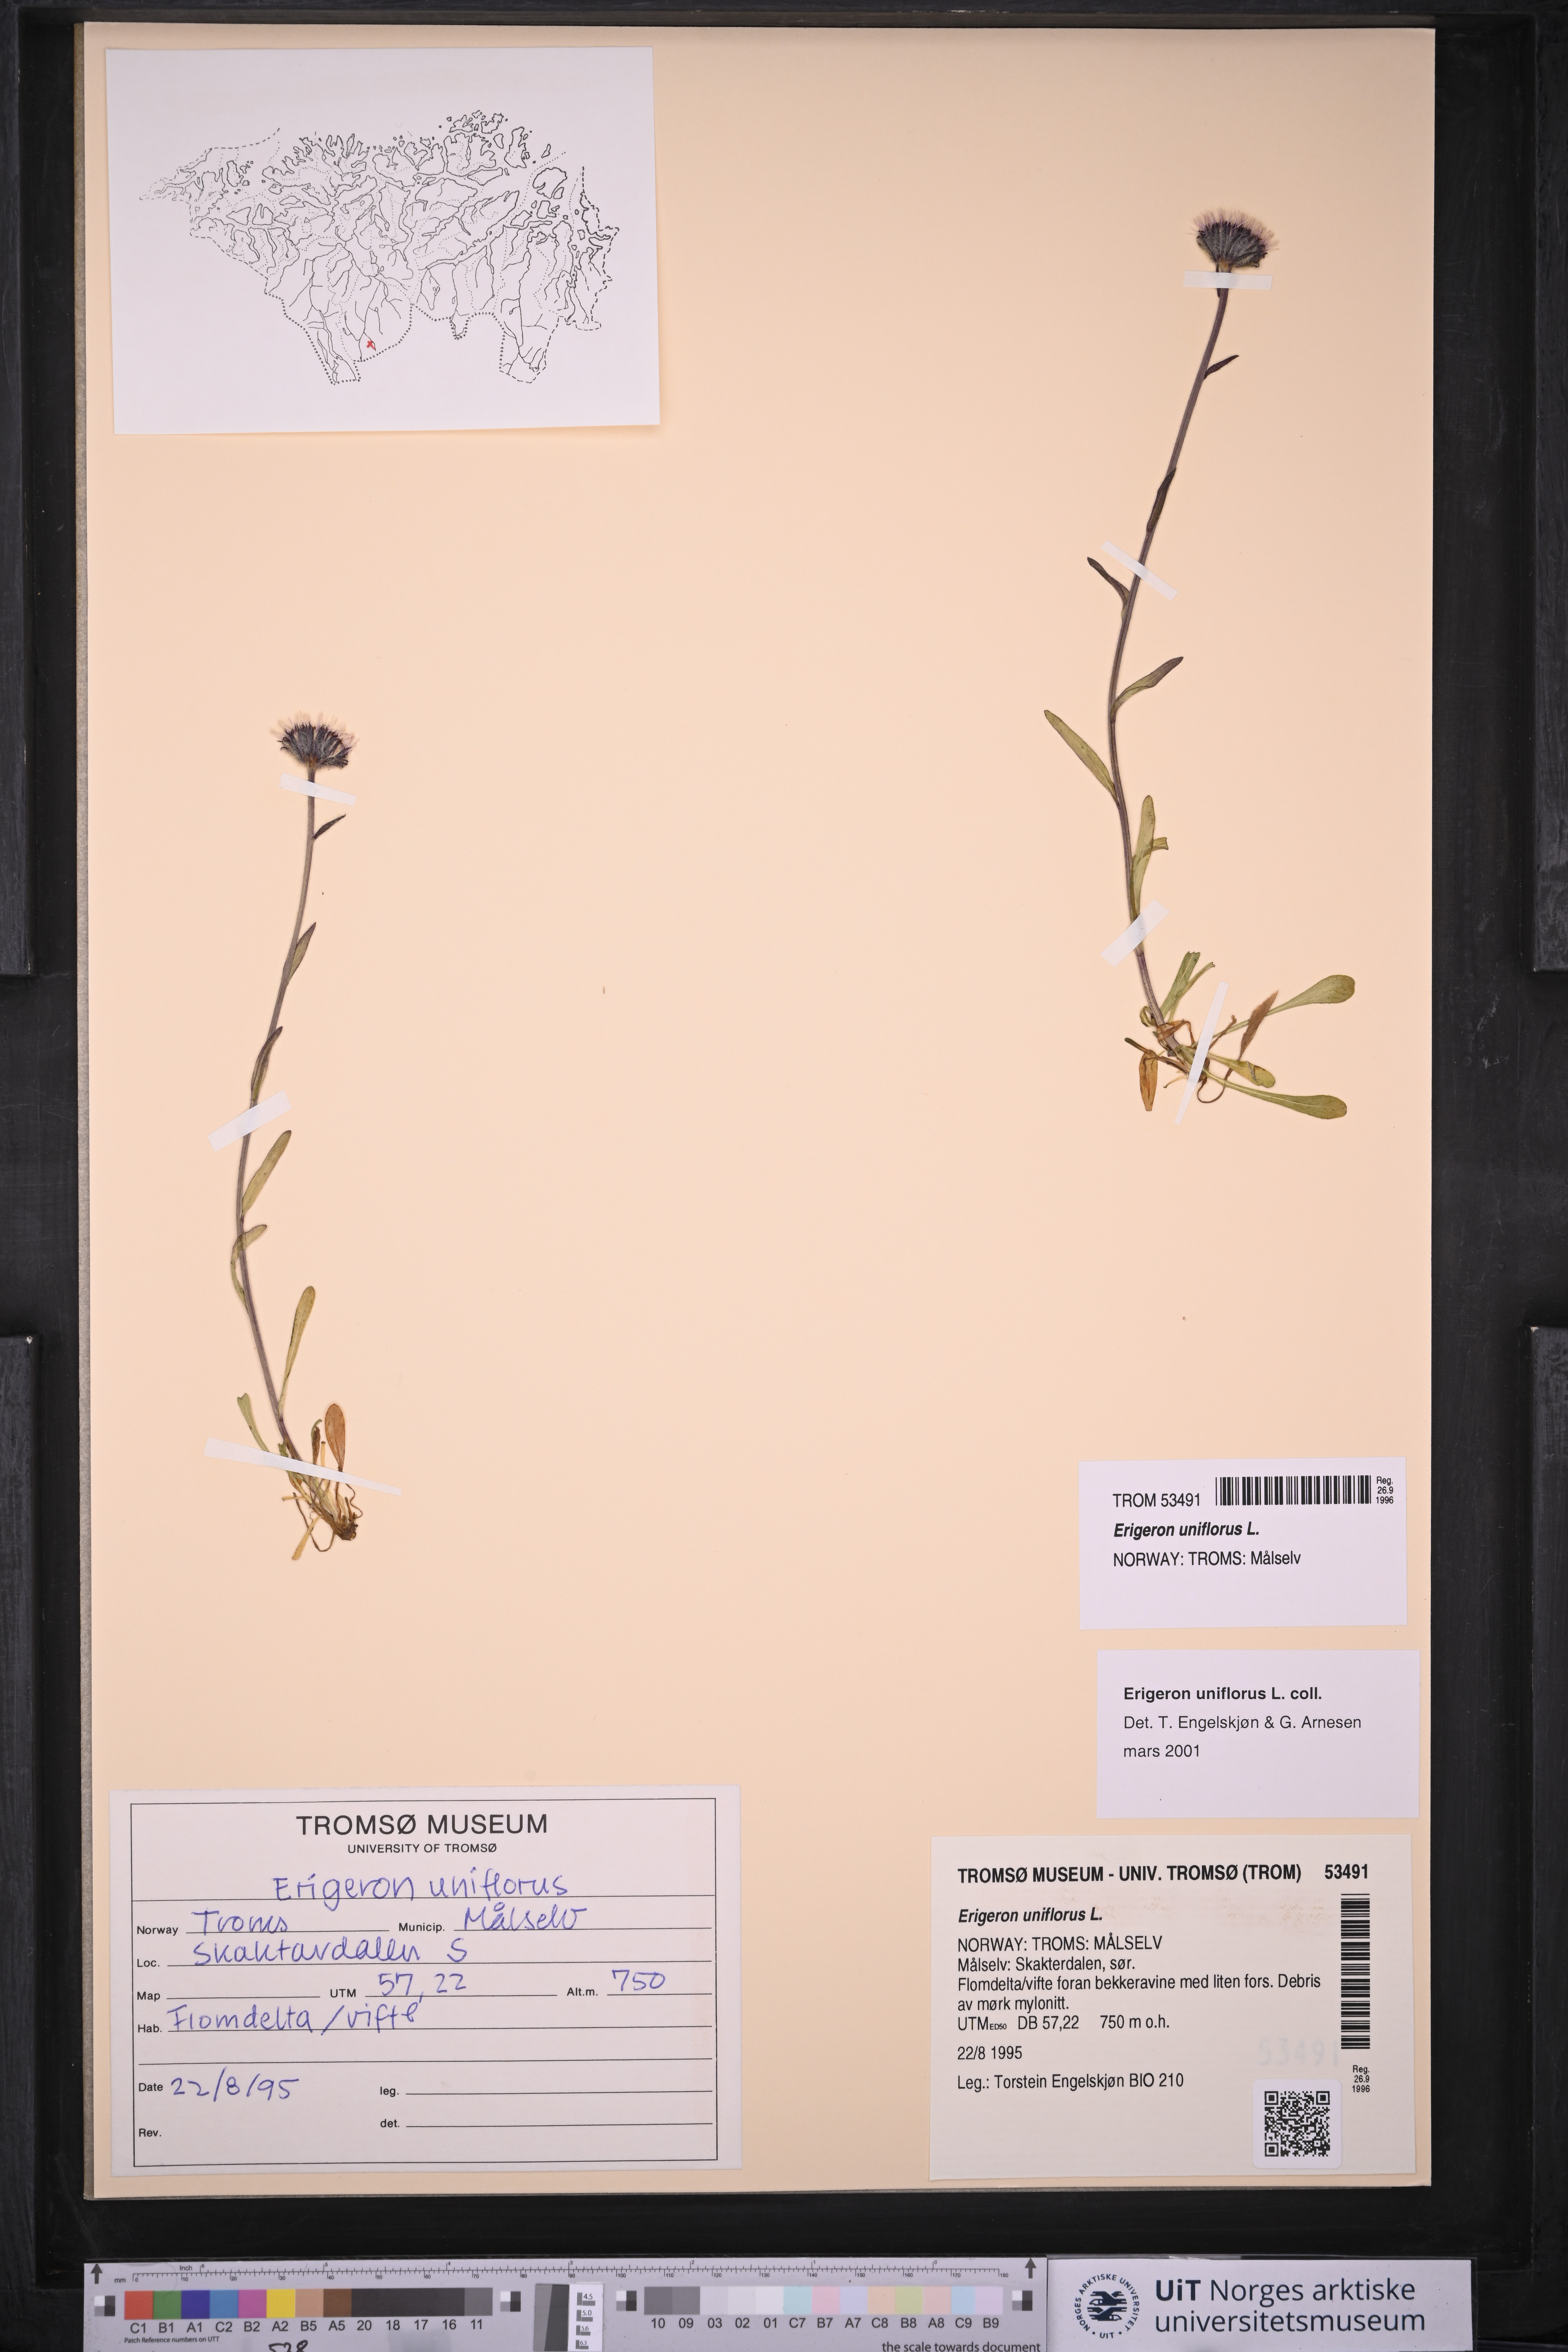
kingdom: Plantae
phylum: Tracheophyta
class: Magnoliopsida
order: Asterales
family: Asteraceae
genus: Erigeron
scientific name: Erigeron uniflorus
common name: Northern daisy
